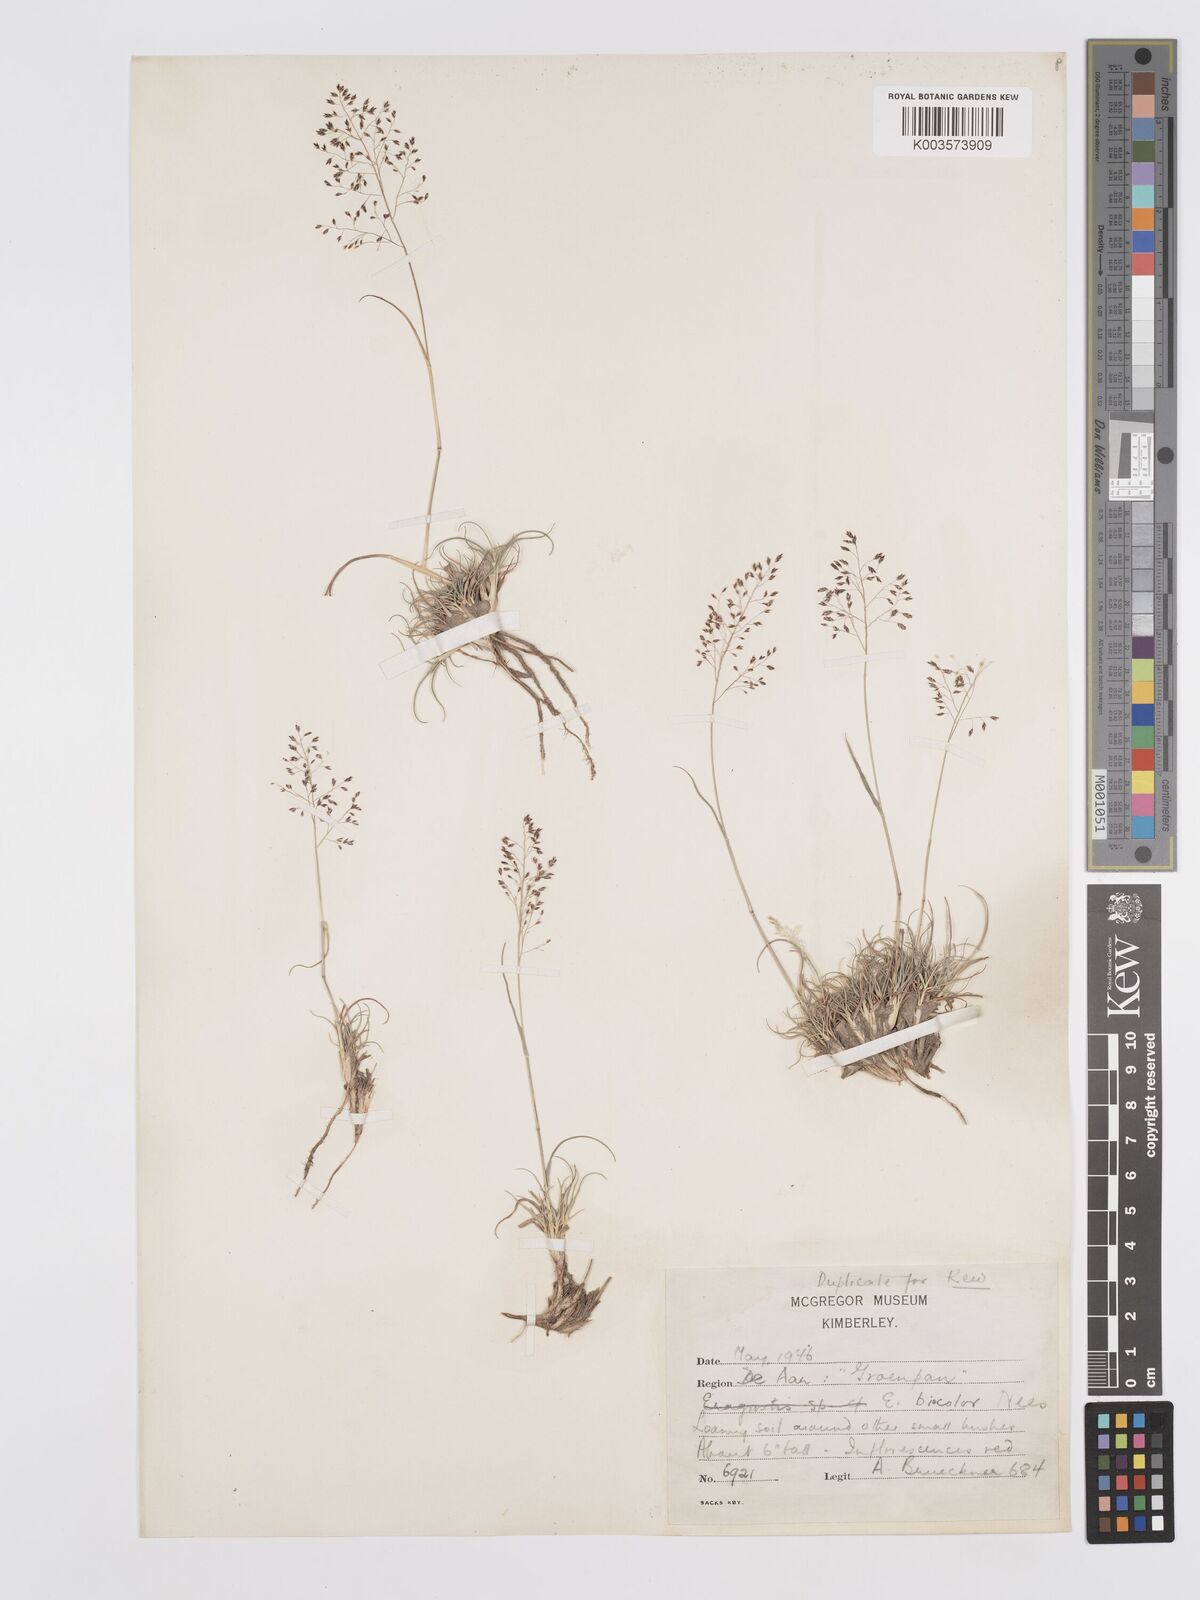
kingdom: Plantae
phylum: Tracheophyta
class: Liliopsida
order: Poales
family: Poaceae
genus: Eragrostis
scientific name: Eragrostis
